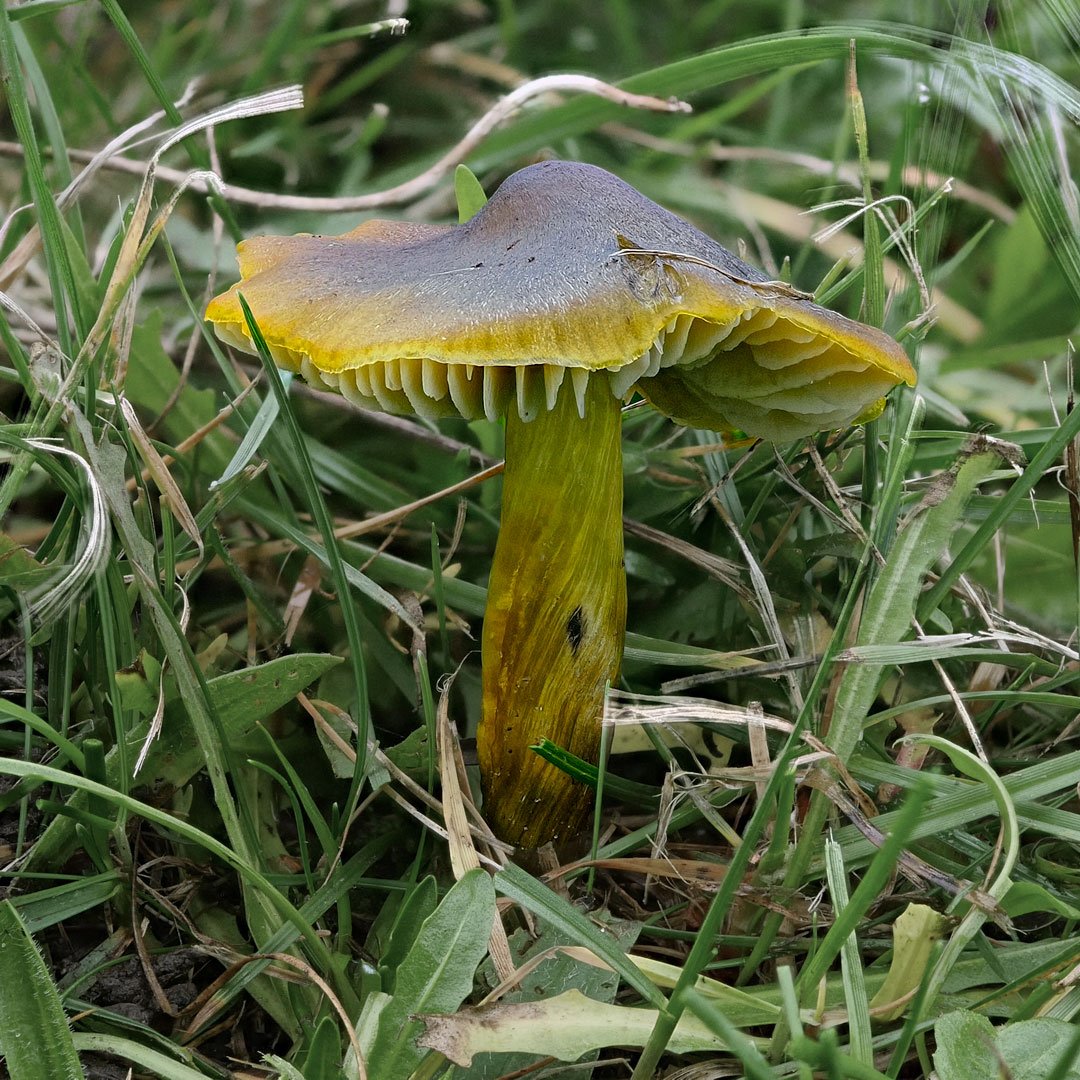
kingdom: Fungi
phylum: Basidiomycota
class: Agaricomycetes
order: Agaricales
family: Hygrophoraceae
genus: Hygrocybe
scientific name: Hygrocybe conica
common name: kegle-vokshat
